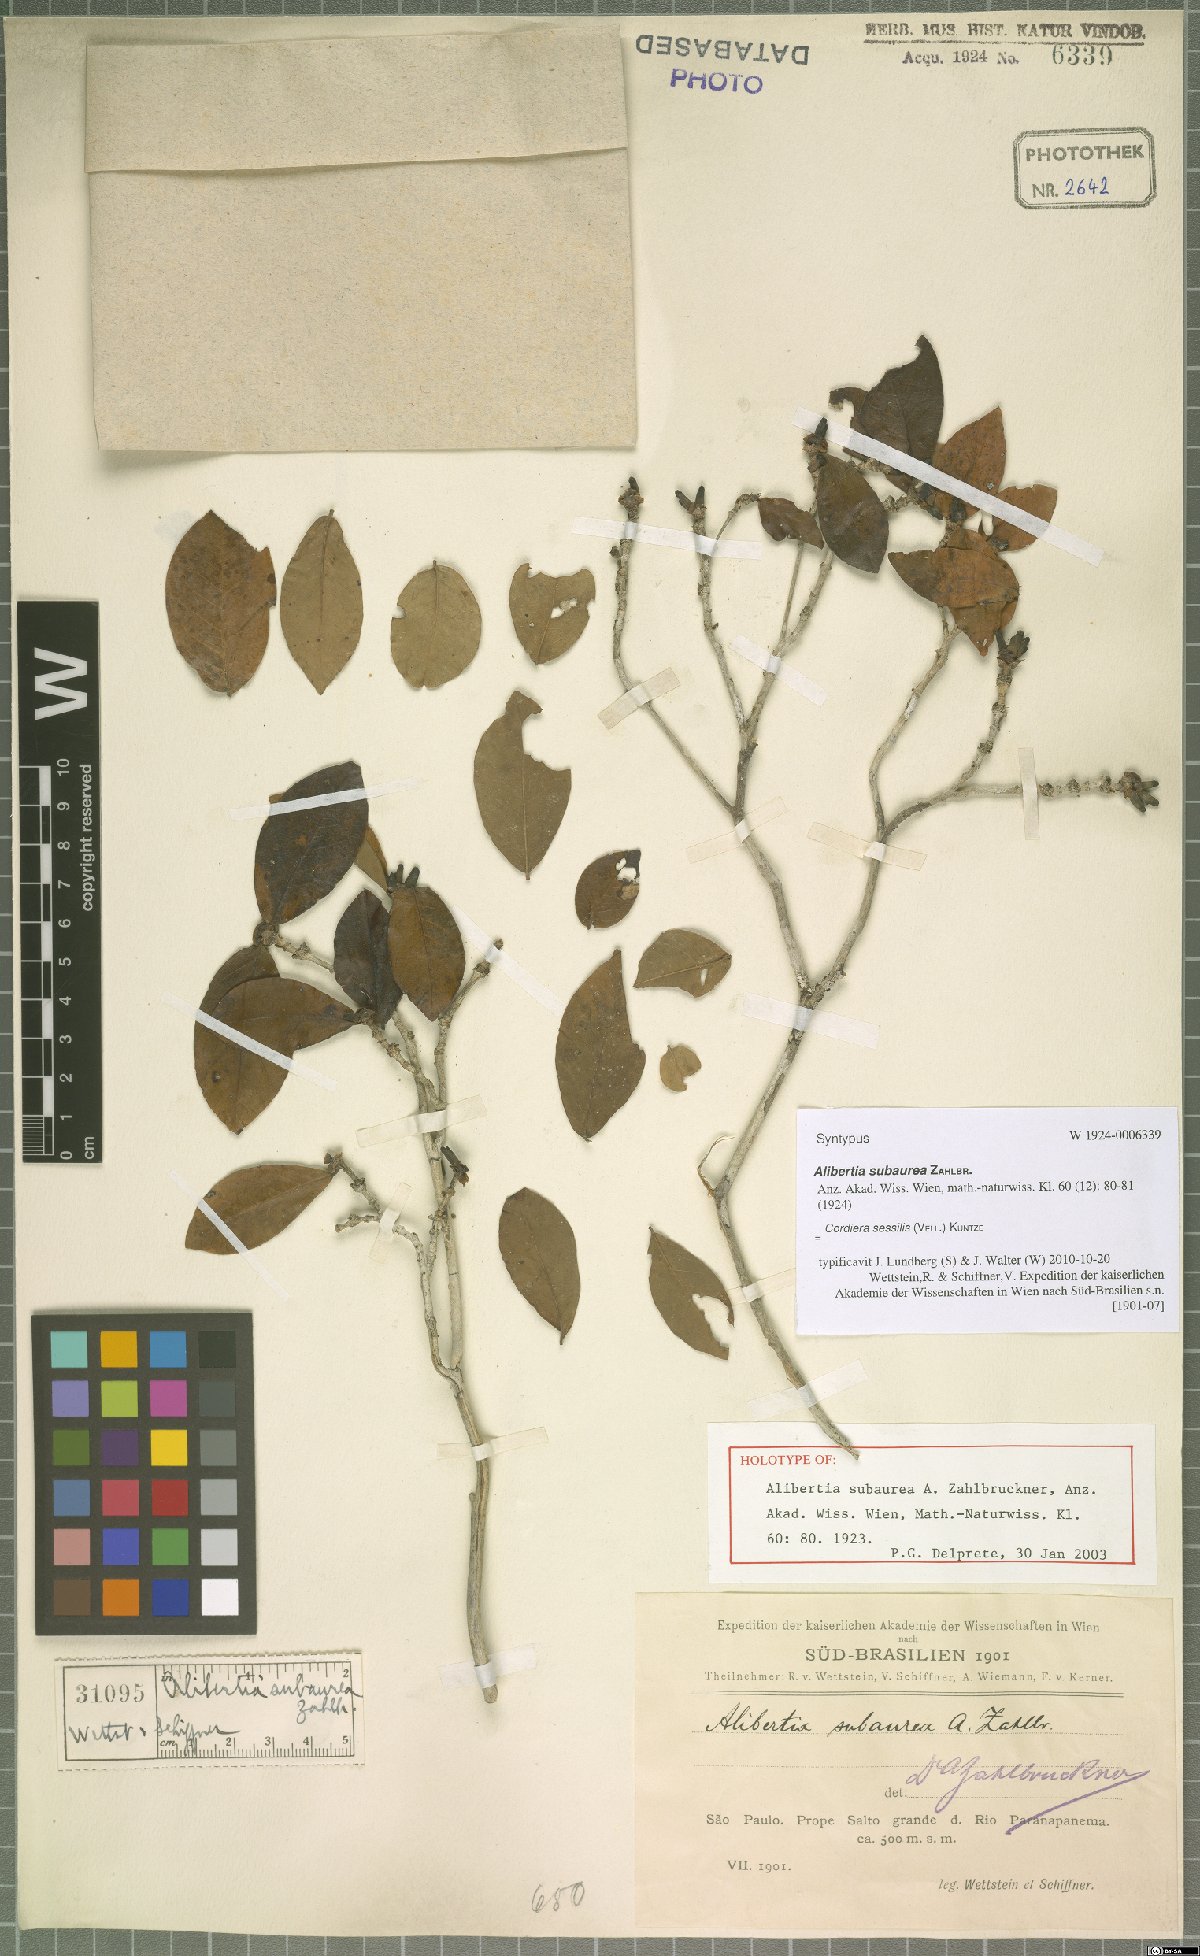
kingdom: Plantae
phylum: Tracheophyta
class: Magnoliopsida
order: Gentianales
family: Rubiaceae
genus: Cordiera
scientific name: Cordiera sessilis
